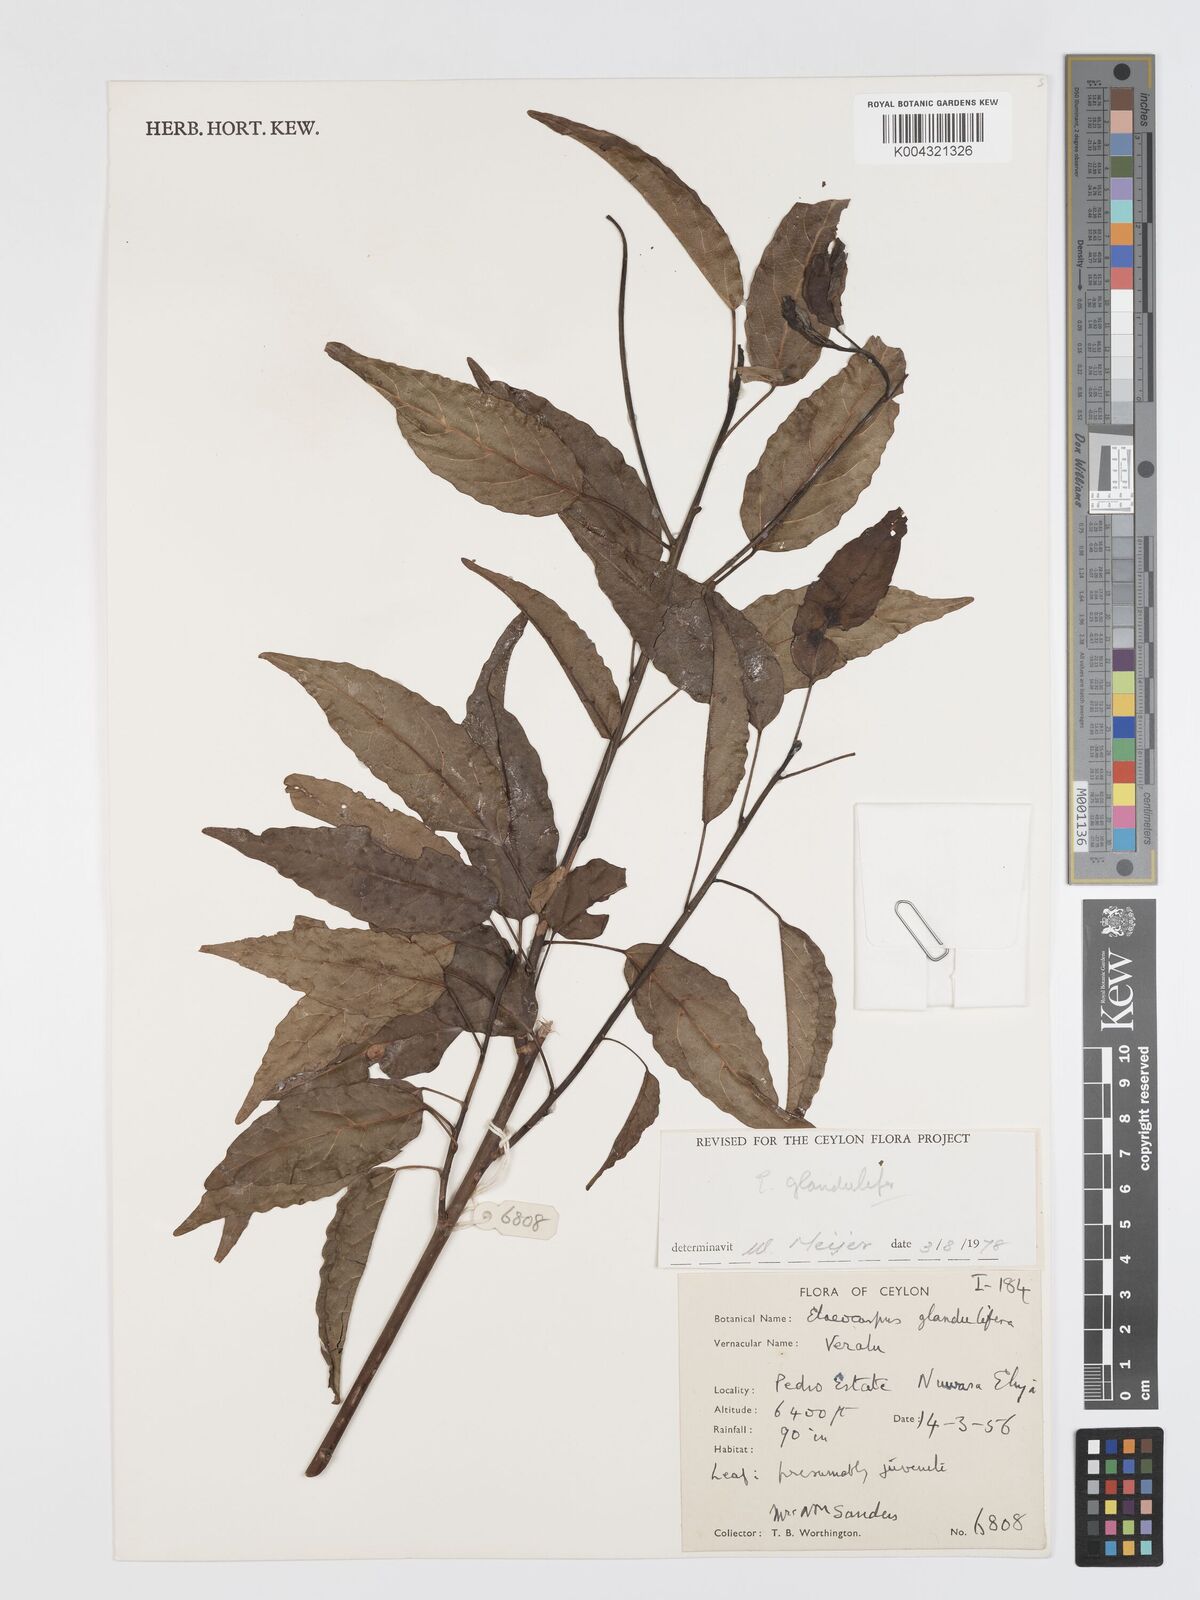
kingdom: Plantae
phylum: Tracheophyta
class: Magnoliopsida
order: Oxalidales
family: Elaeocarpaceae
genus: Elaeocarpus
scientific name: Elaeocarpus glandulifer
